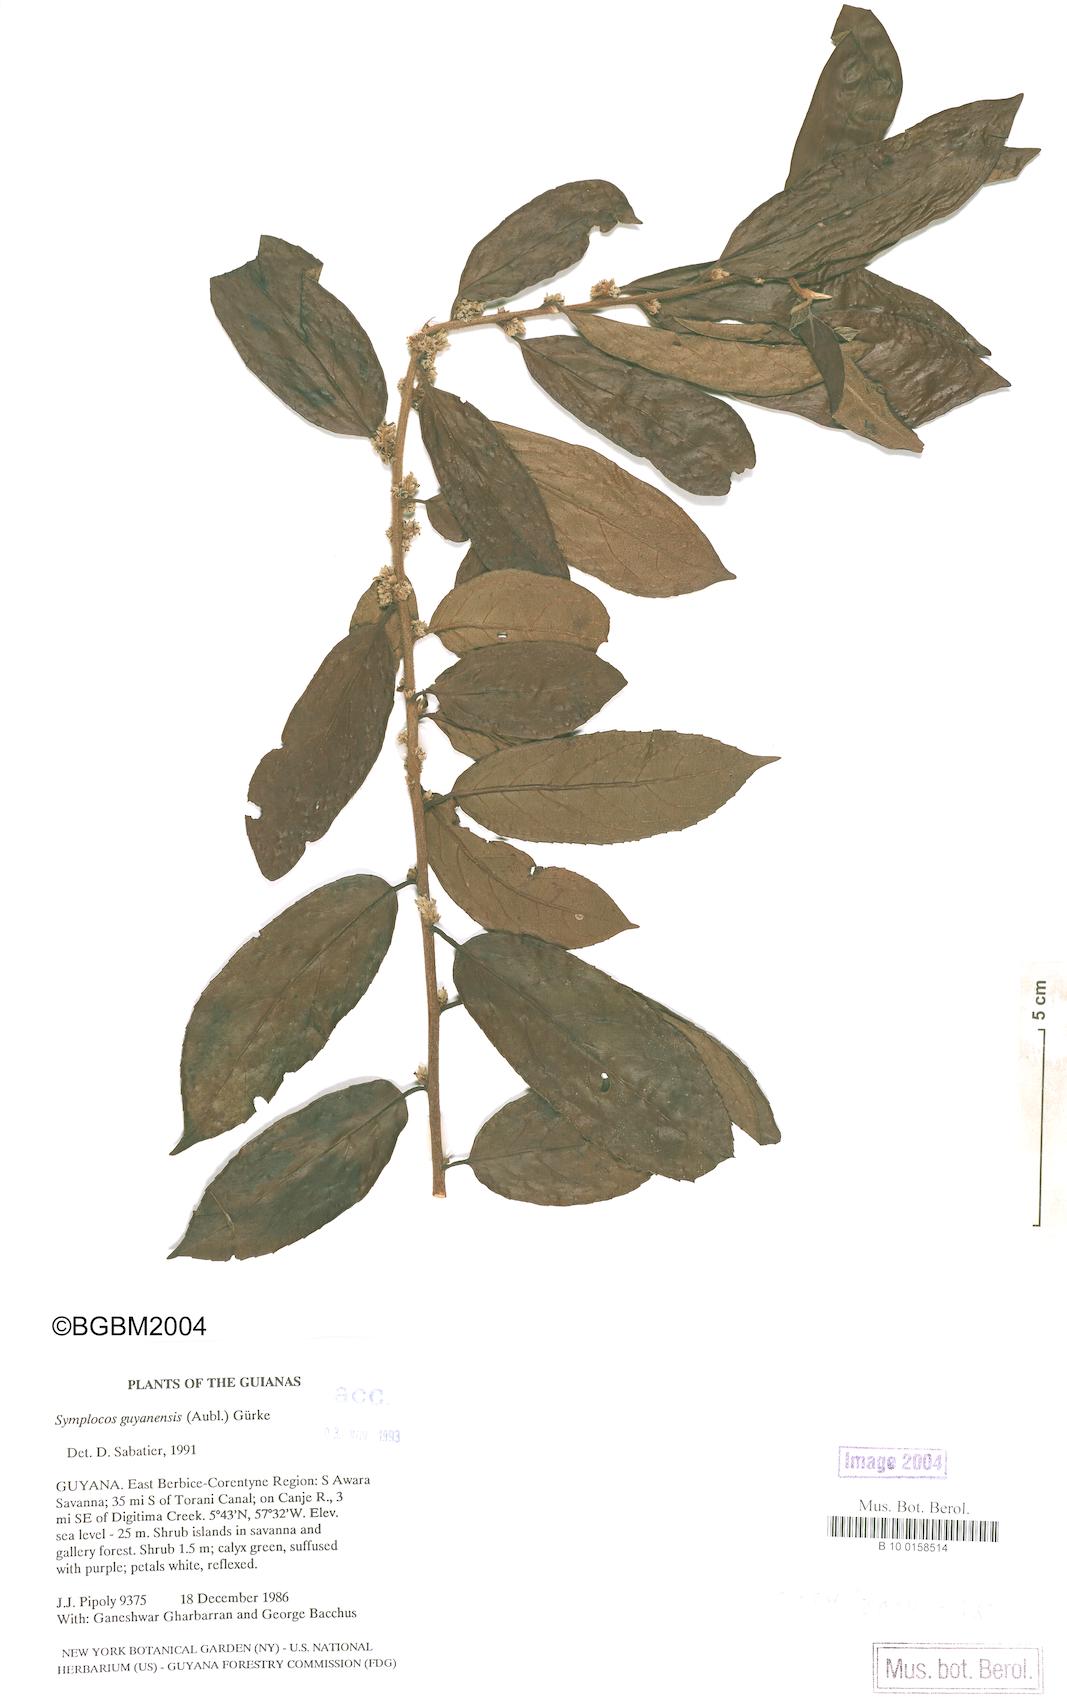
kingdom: Plantae
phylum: Tracheophyta
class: Magnoliopsida
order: Ericales
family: Symplocaceae
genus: Symplocos
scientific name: Symplocos guianensis
